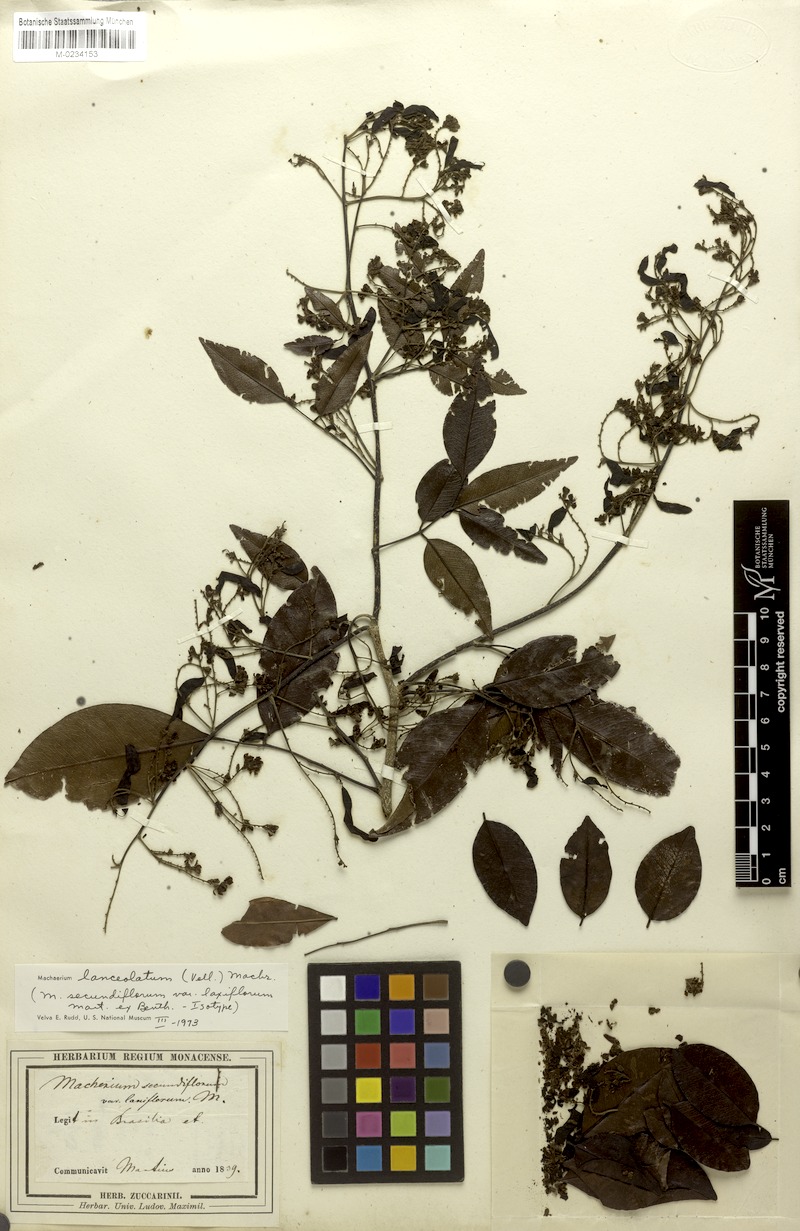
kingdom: Plantae
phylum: Tracheophyta
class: Magnoliopsida
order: Fabales
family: Fabaceae
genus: Machaerium
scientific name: Machaerium lanceolatum
